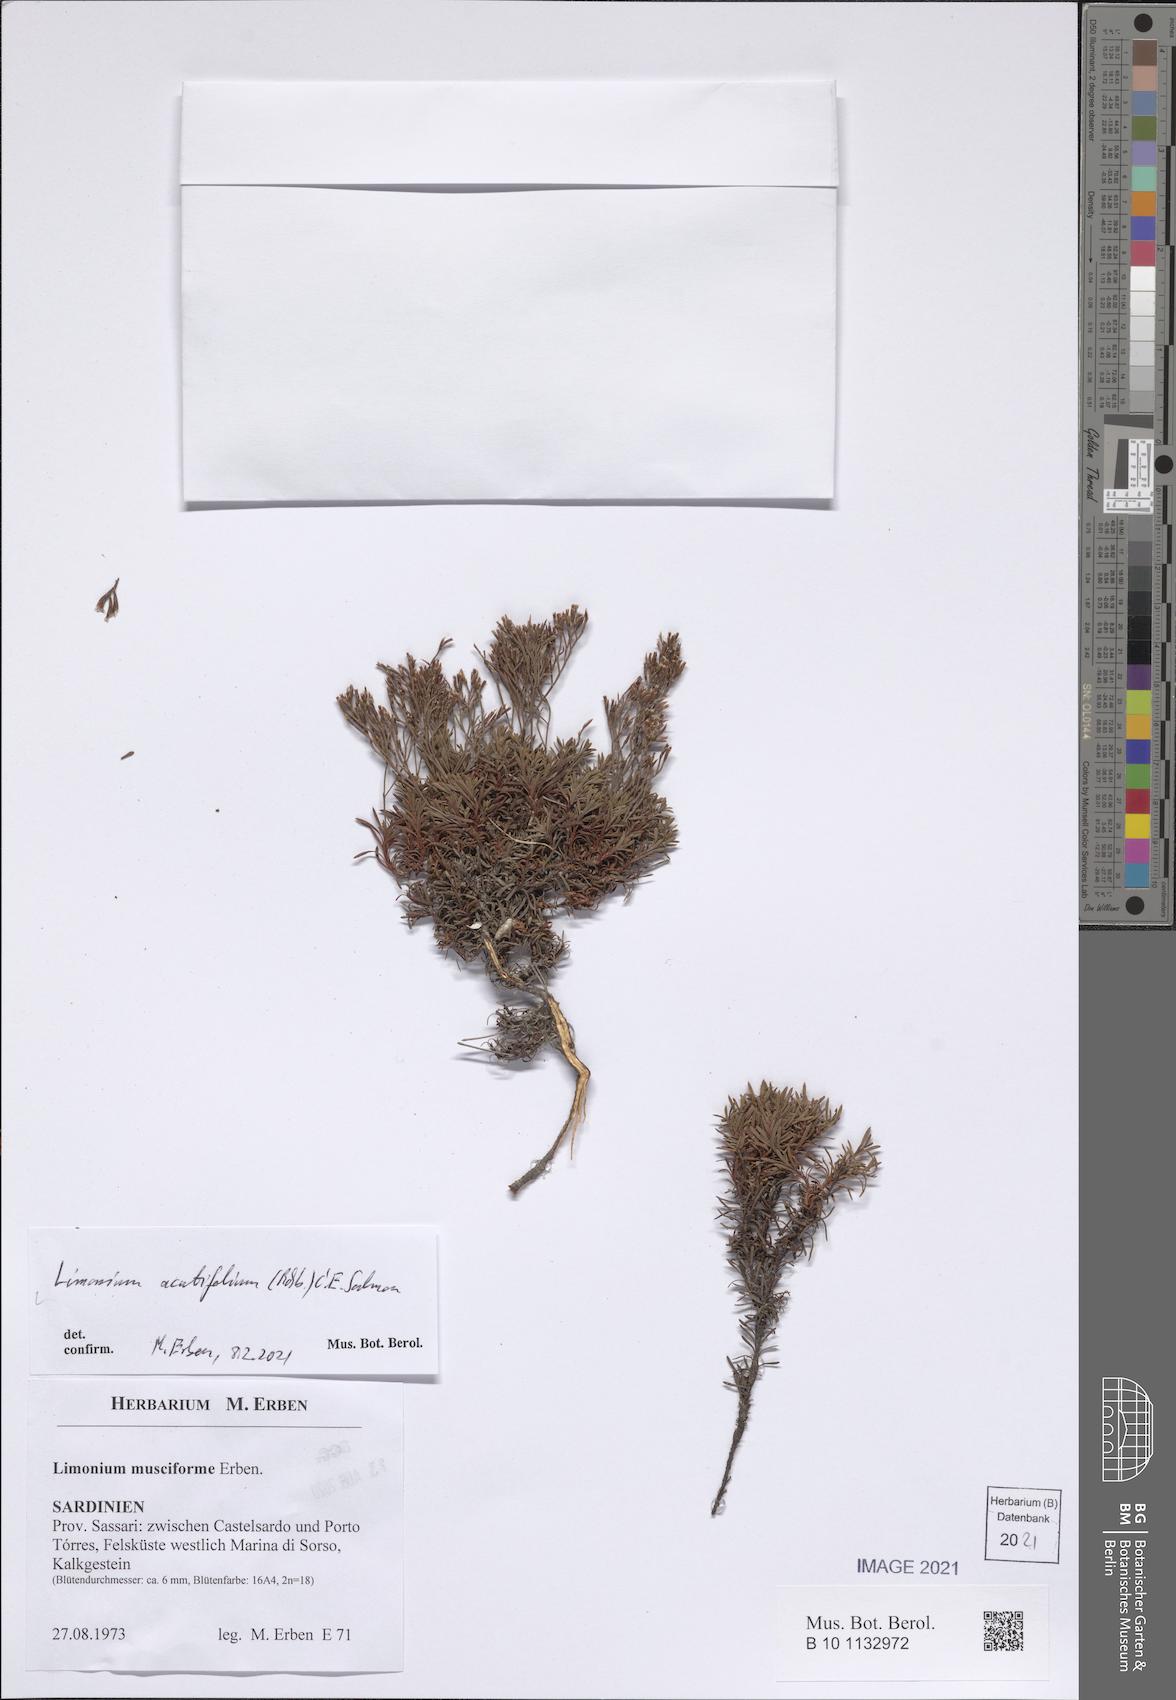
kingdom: Plantae
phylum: Tracheophyta
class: Magnoliopsida
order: Caryophyllales
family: Plumbaginaceae
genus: Limonium
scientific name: Limonium acutifolium
